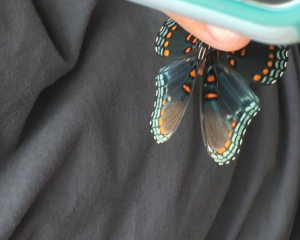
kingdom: Animalia
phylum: Arthropoda
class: Insecta
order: Lepidoptera
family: Nymphalidae
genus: Limenitis
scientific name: Limenitis astyanax
